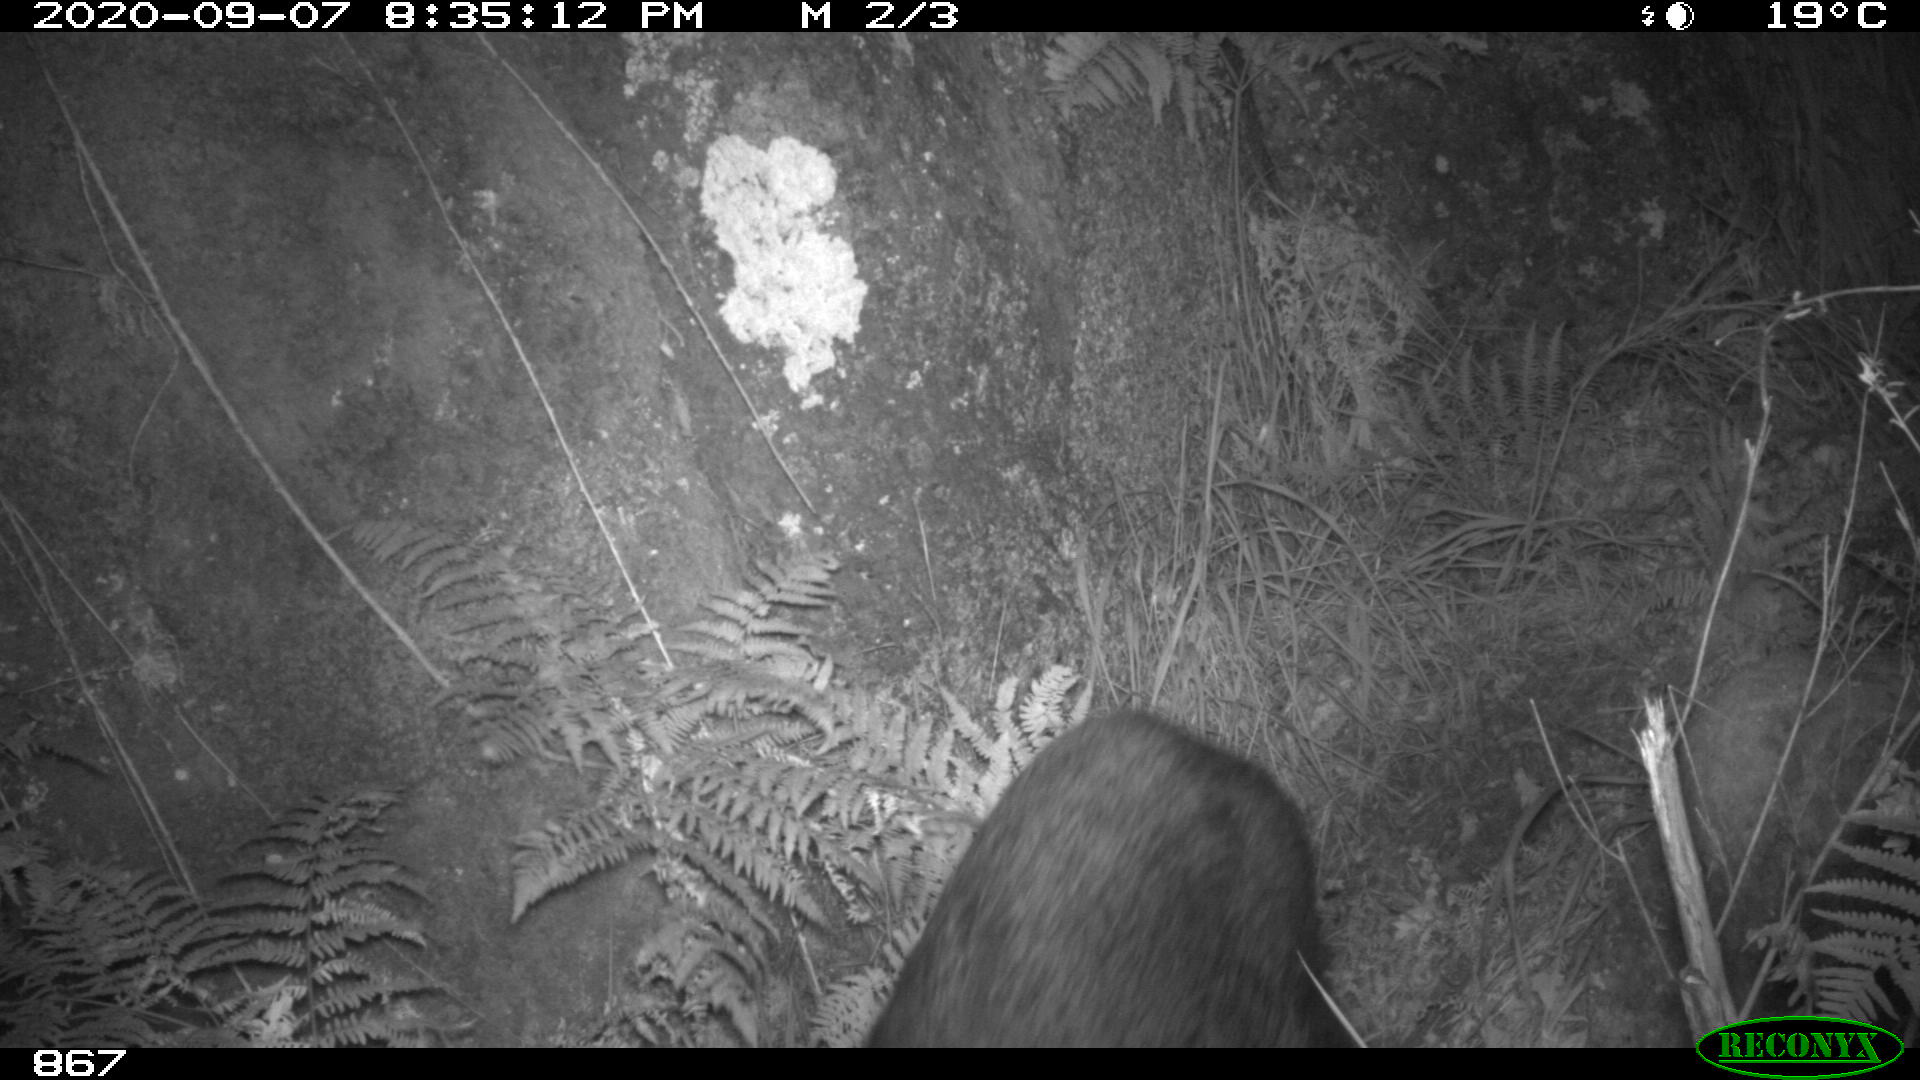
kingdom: Animalia
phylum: Chordata
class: Mammalia
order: Artiodactyla
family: Suidae
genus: Sus
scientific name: Sus scrofa
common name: Wild boar
